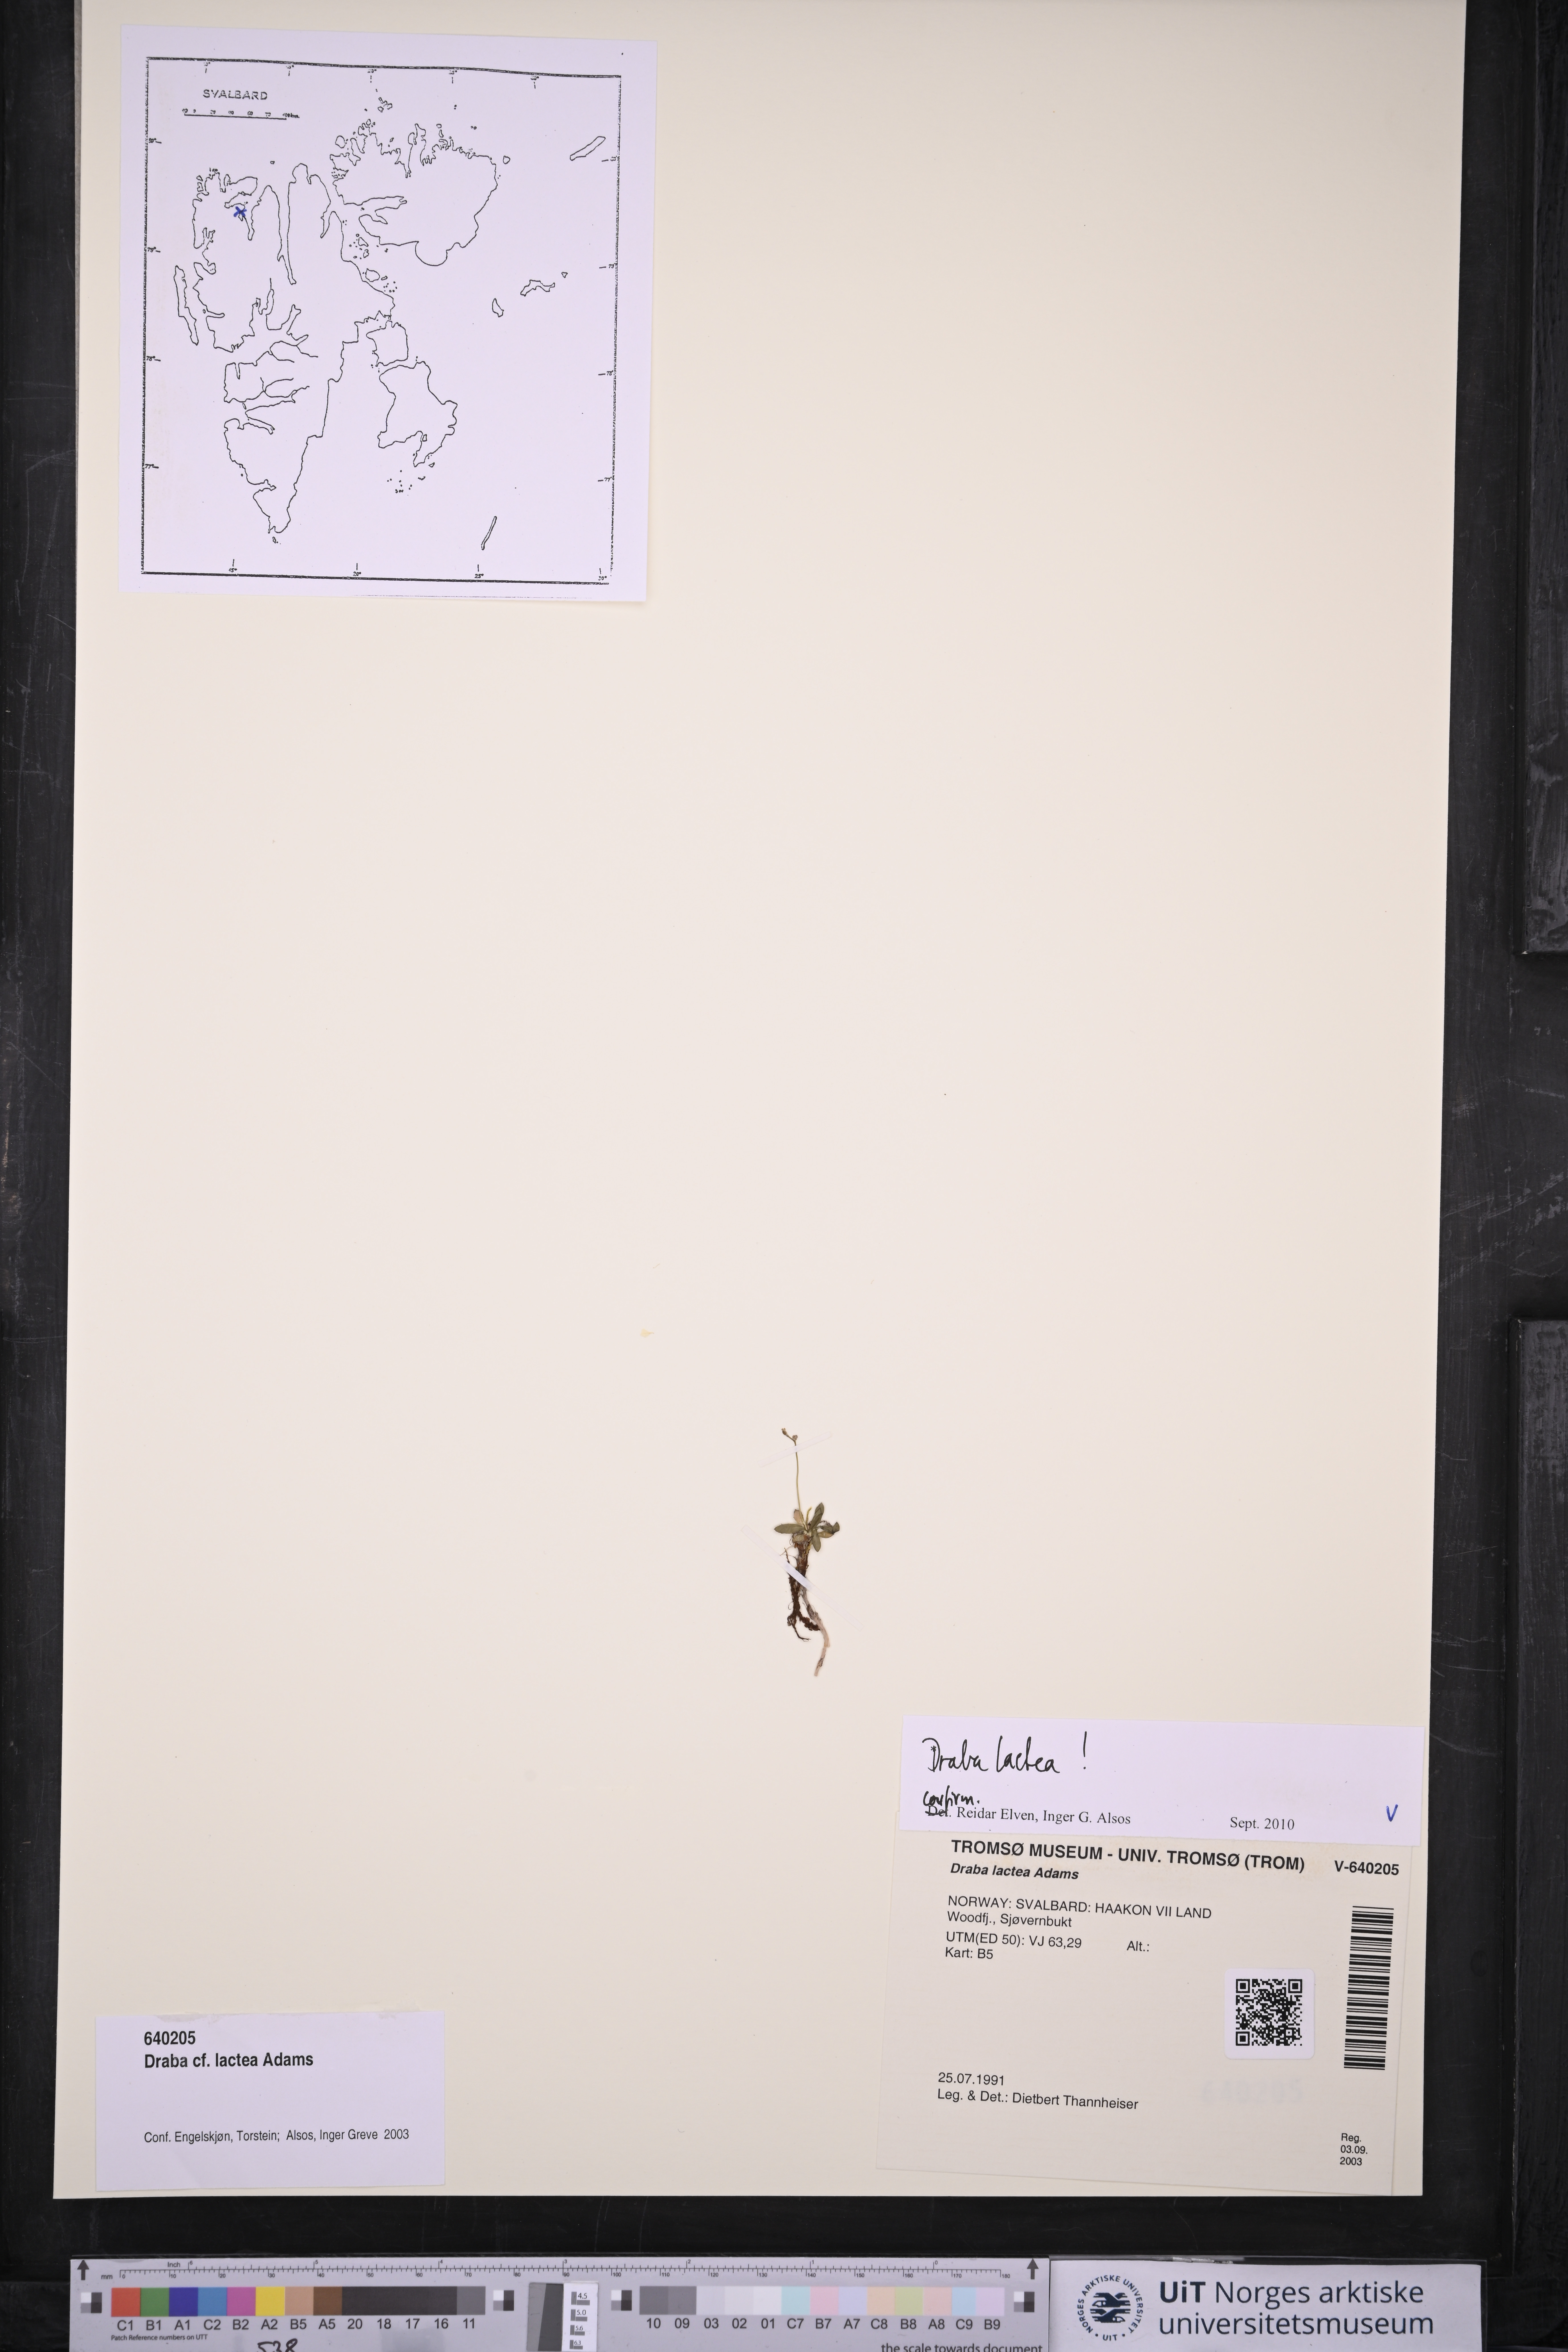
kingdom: Plantae
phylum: Tracheophyta
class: Magnoliopsida
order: Brassicales
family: Brassicaceae
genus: Draba
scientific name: Draba lactea
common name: Milky draba
